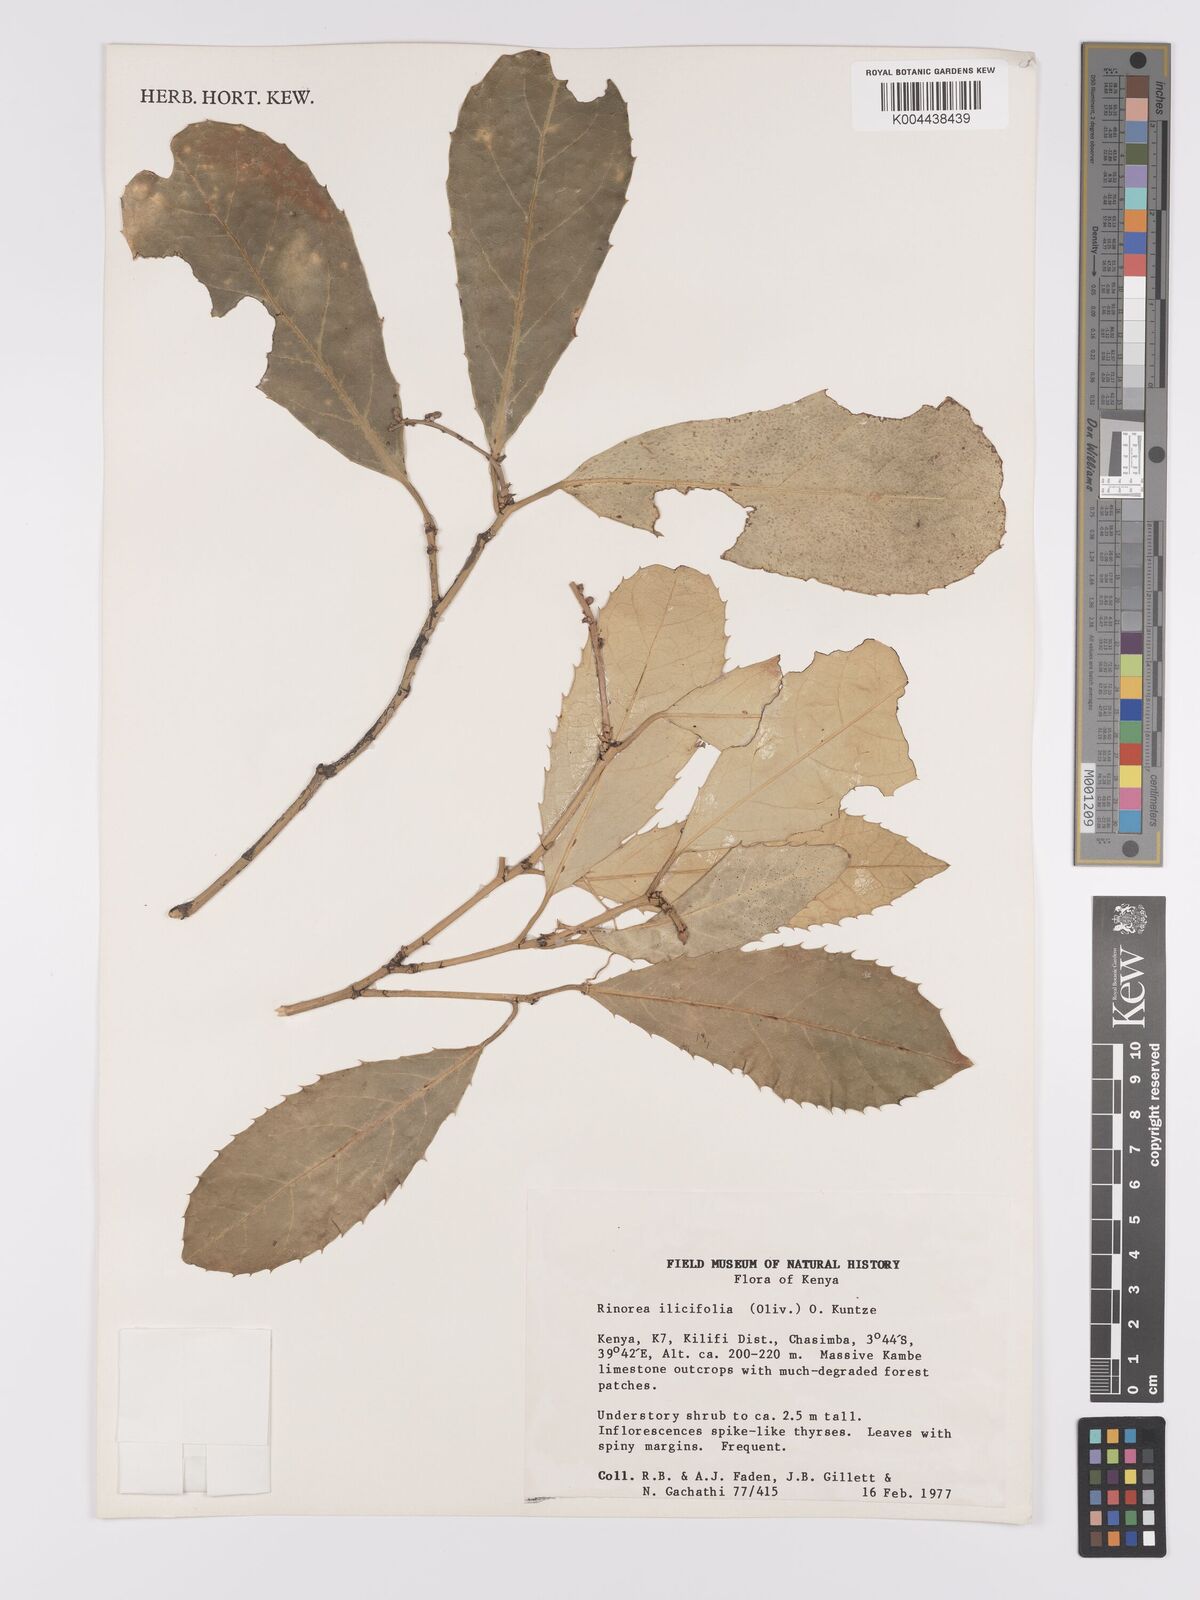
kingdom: Plantae
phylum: Tracheophyta
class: Magnoliopsida
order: Malpighiales
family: Violaceae
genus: Rinorea
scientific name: Rinorea ilicifolia
